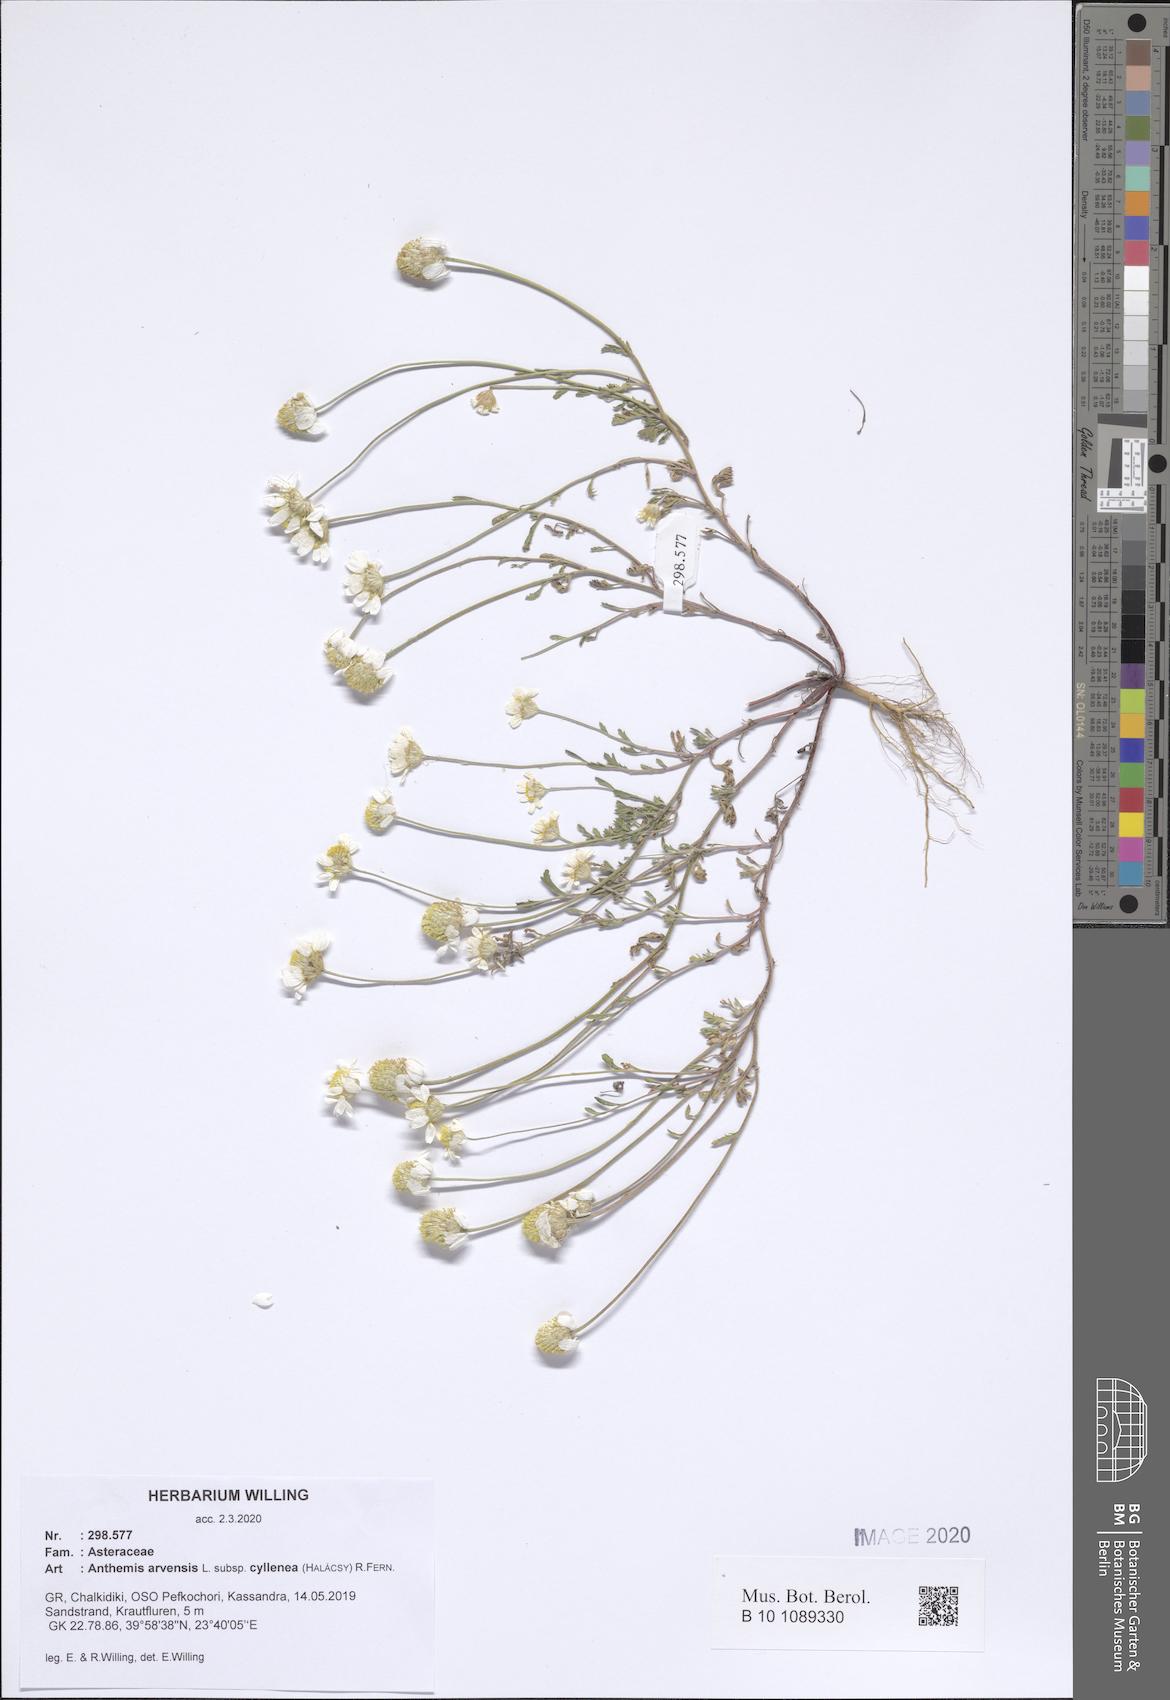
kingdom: Plantae
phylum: Tracheophyta
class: Magnoliopsida
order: Asterales
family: Asteraceae
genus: Anthemis
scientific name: Anthemis arvensis
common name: Corn chamomile
